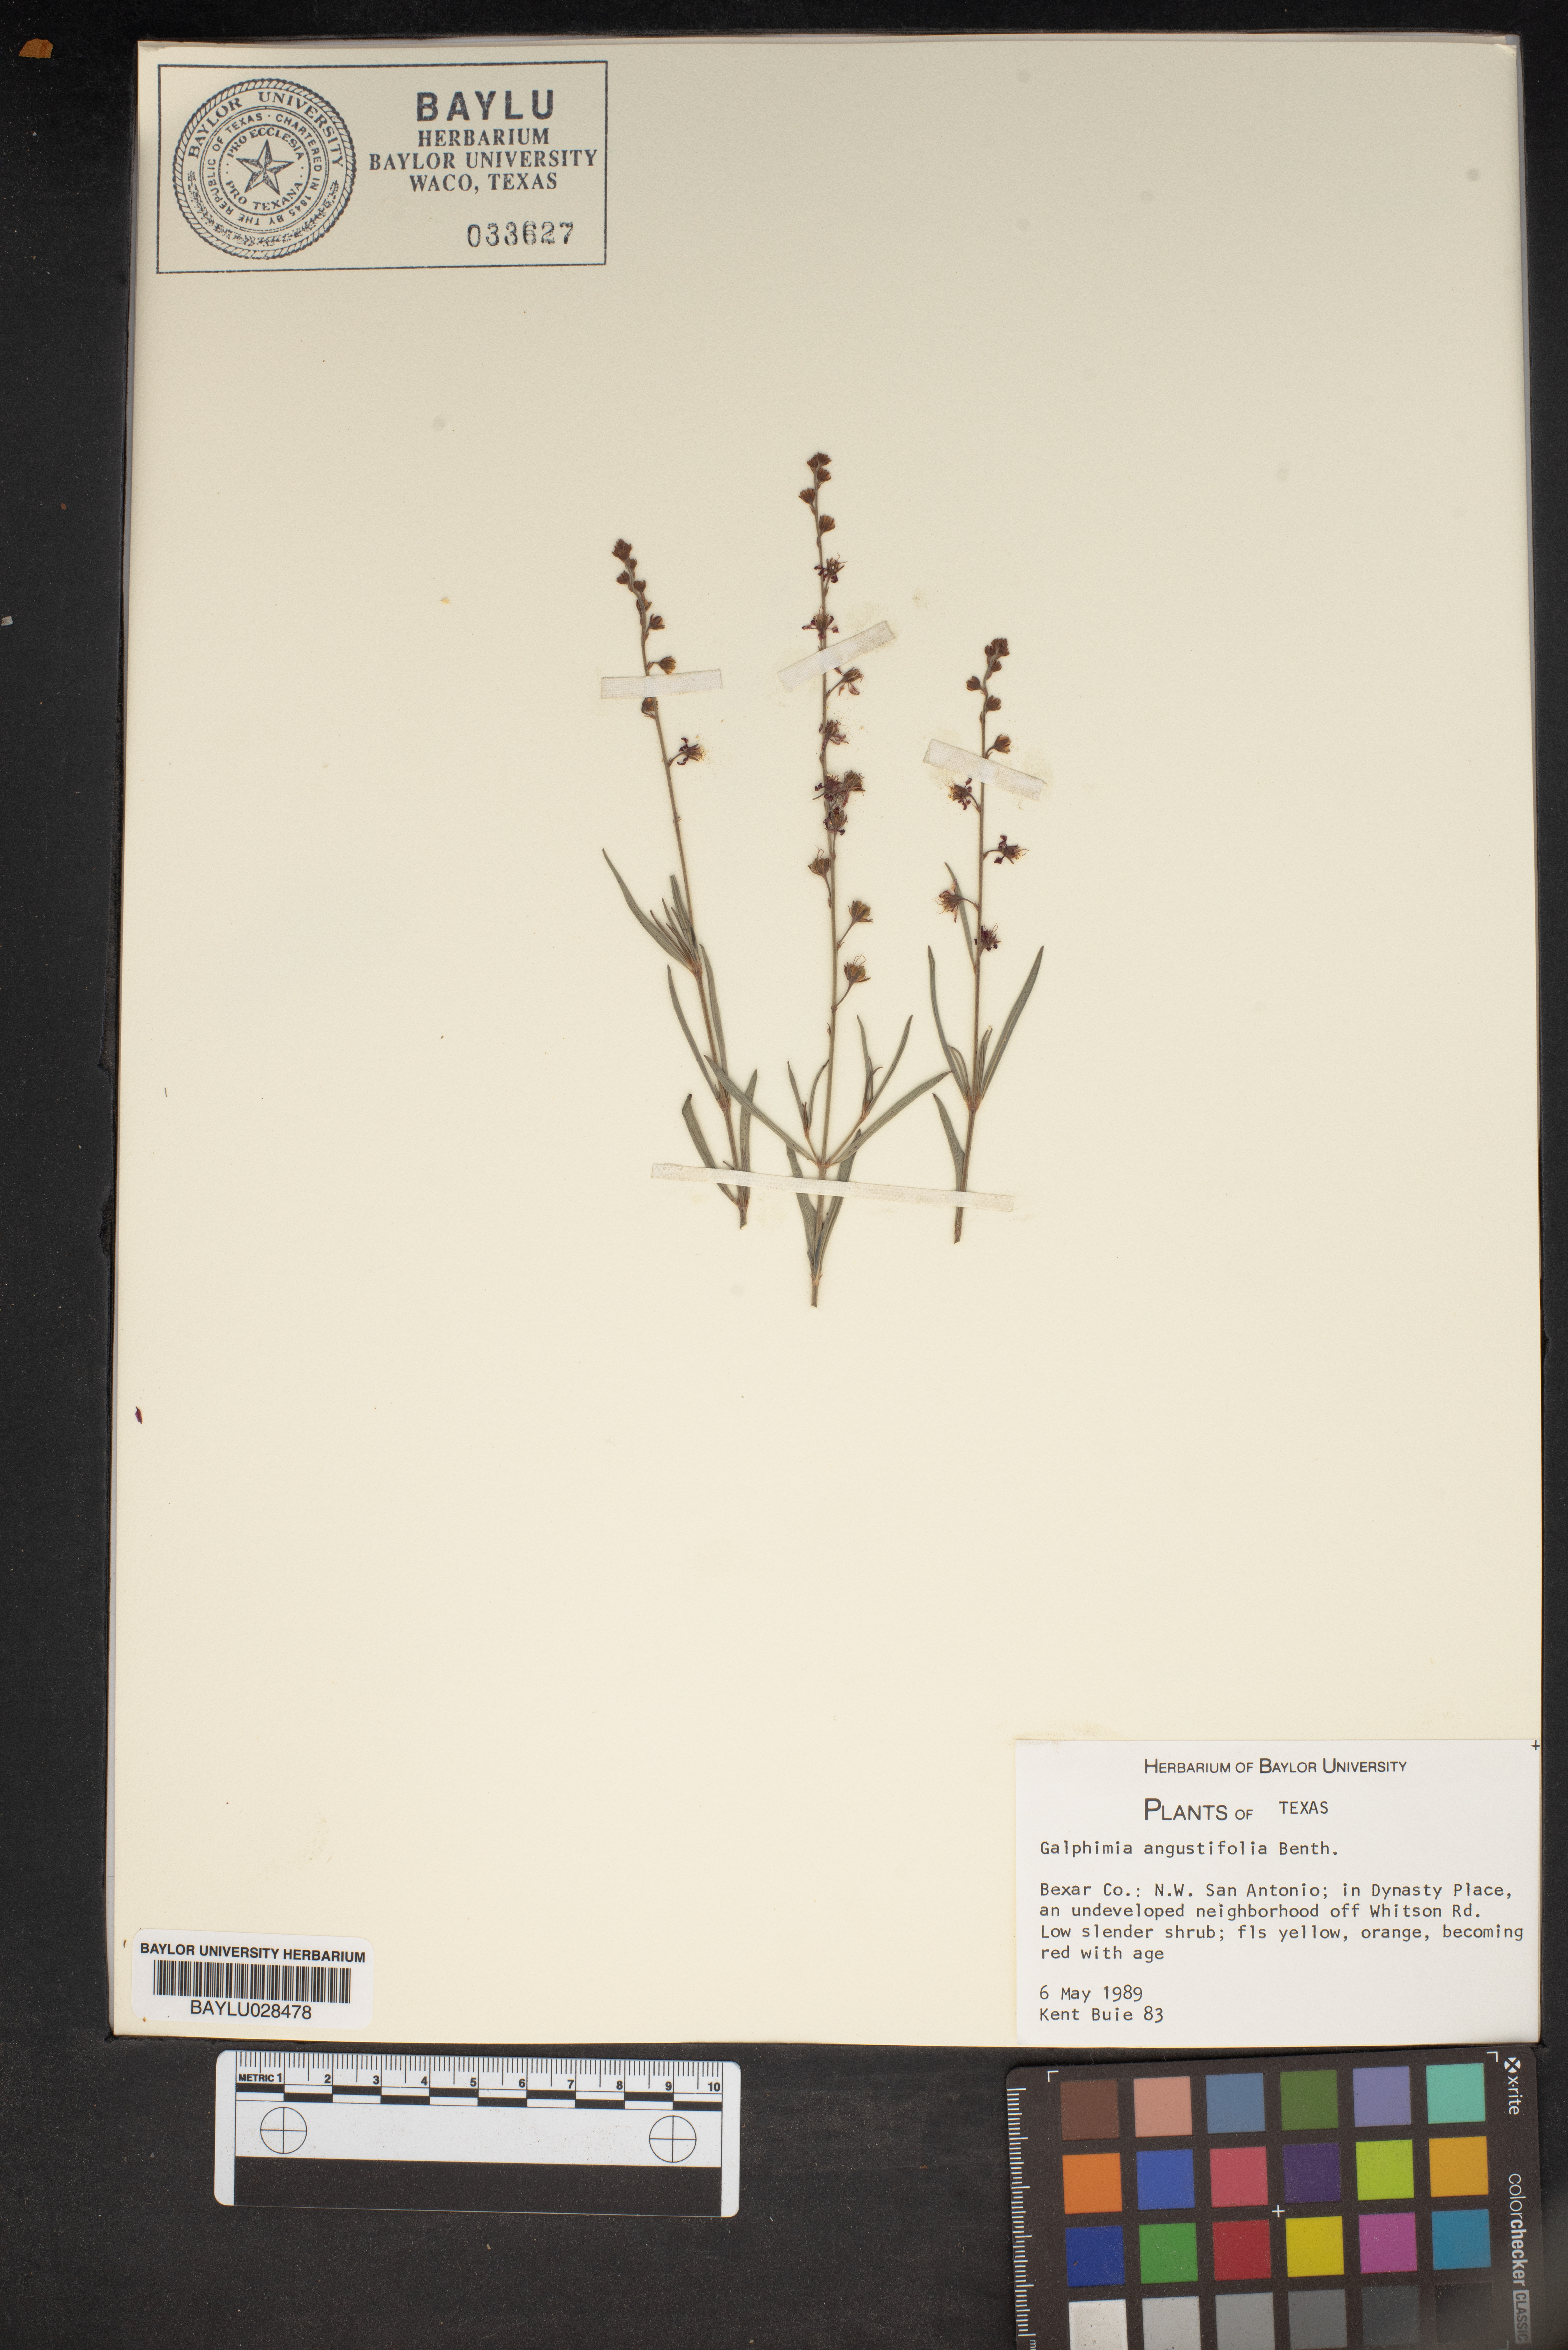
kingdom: Plantae
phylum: Tracheophyta
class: Magnoliopsida
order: Malpighiales
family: Malpighiaceae
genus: Galphimia
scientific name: Galphimia angustifolia
